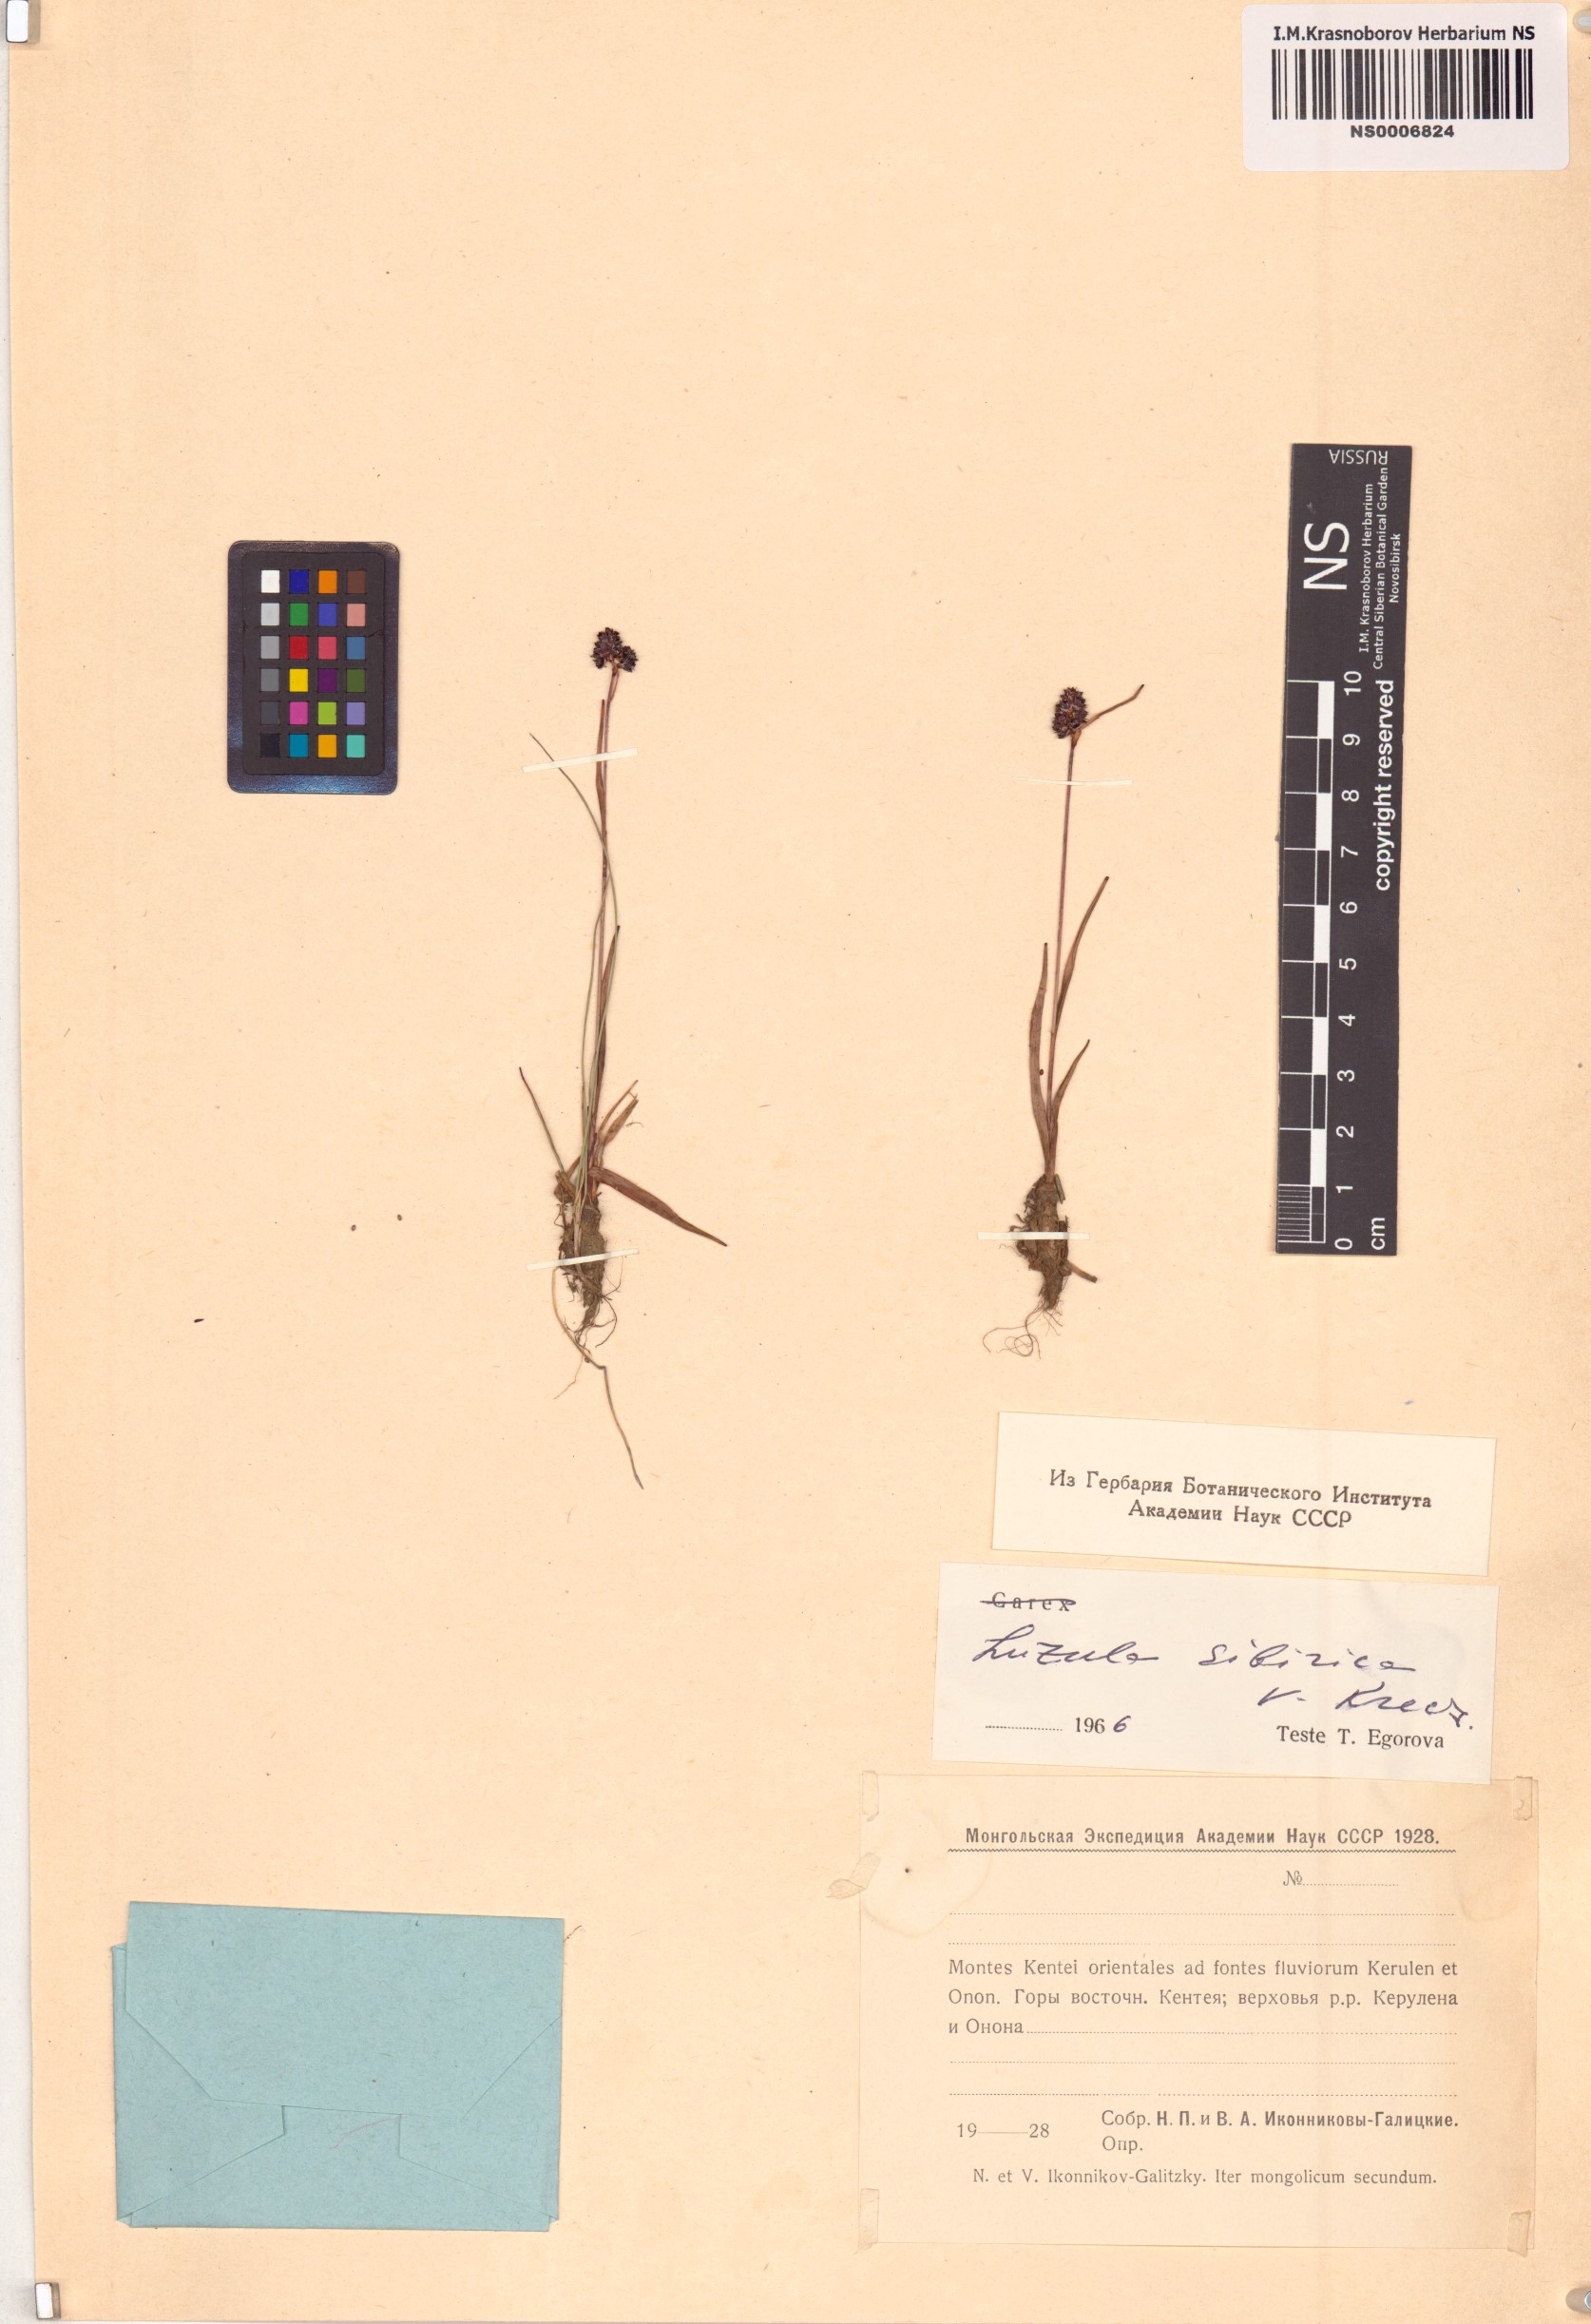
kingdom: Plantae
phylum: Tracheophyta
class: Liliopsida
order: Poales
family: Juncaceae
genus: Luzula
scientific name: Luzula multiflora
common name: Heath wood-rush
